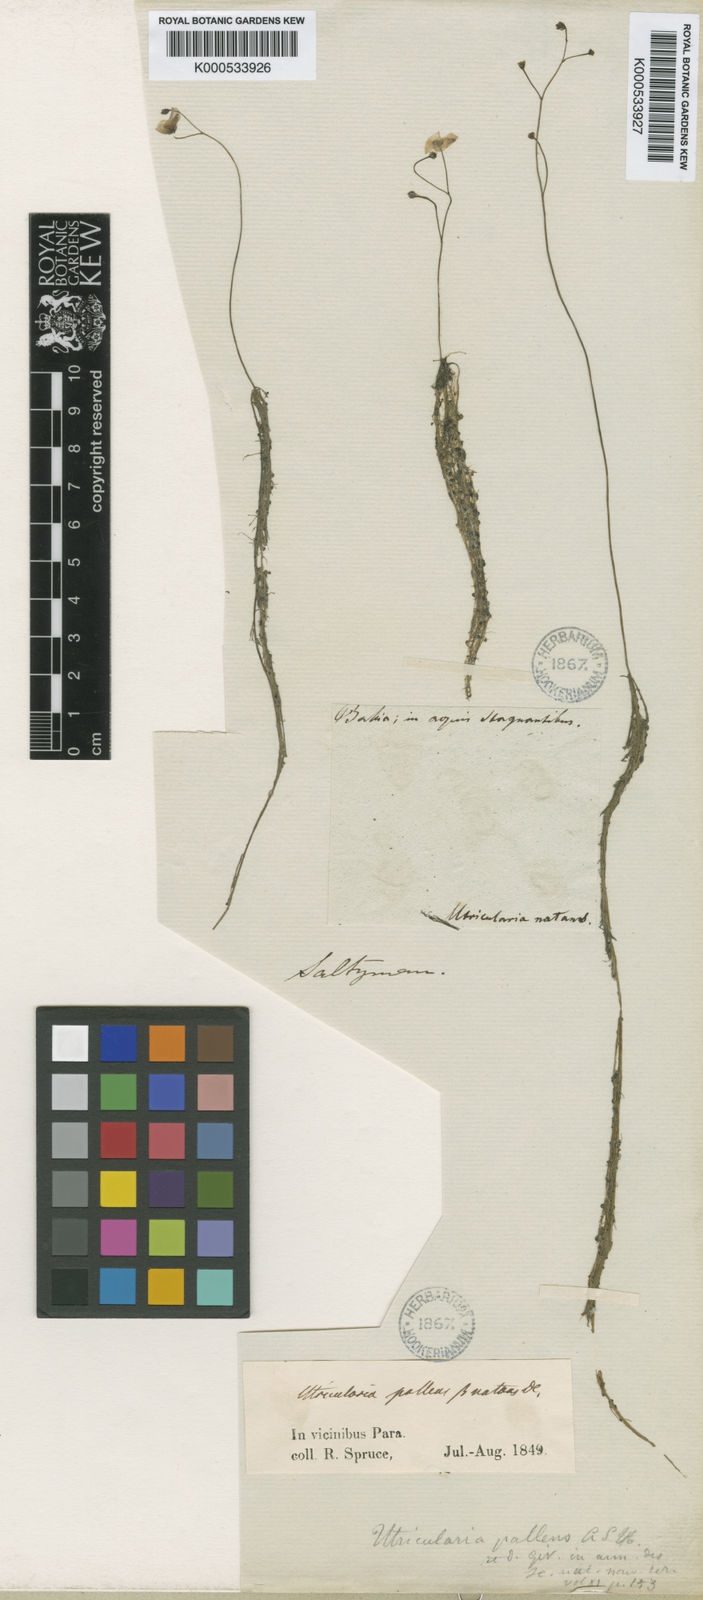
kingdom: Plantae
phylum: Tracheophyta
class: Magnoliopsida
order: Lamiales
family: Lentibulariaceae
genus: Utricularia
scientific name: Utricularia gibba
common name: Humped bladderwort
